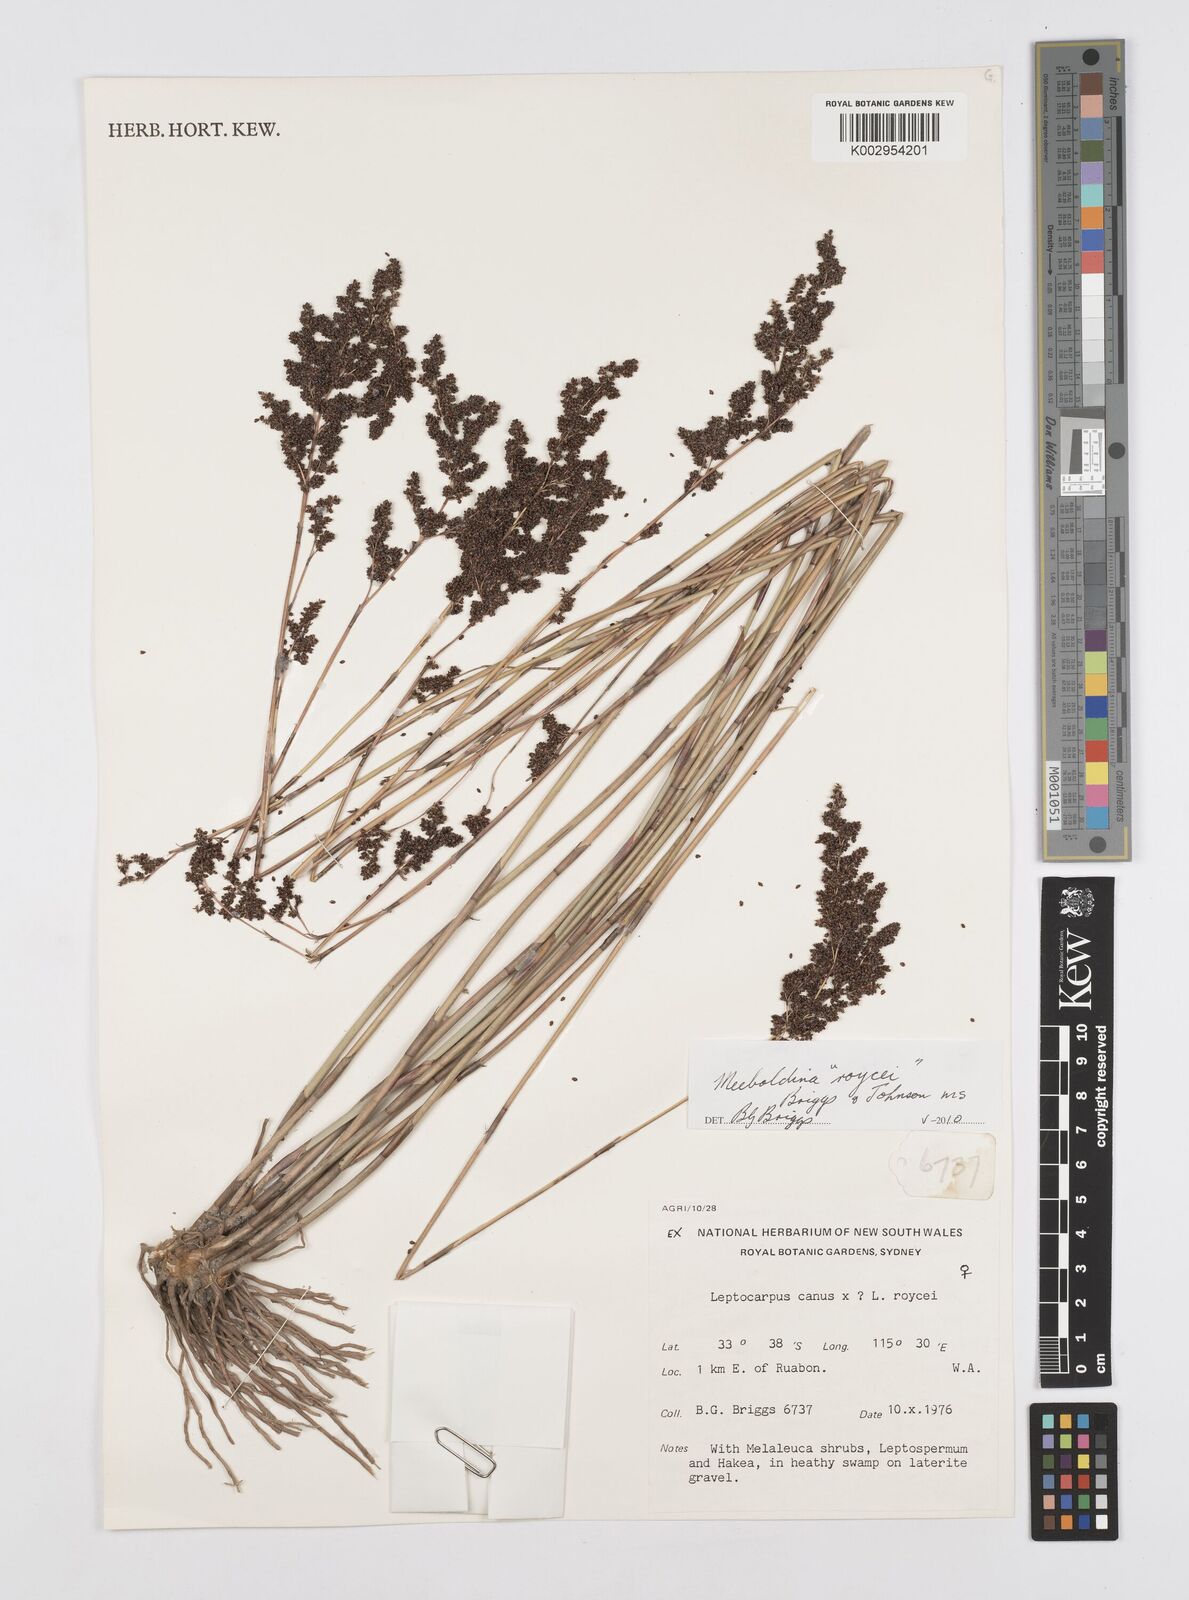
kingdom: Plantae
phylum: Tracheophyta
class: Liliopsida
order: Poales
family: Restionaceae
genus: Leptocarpus
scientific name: Leptocarpus roycei
